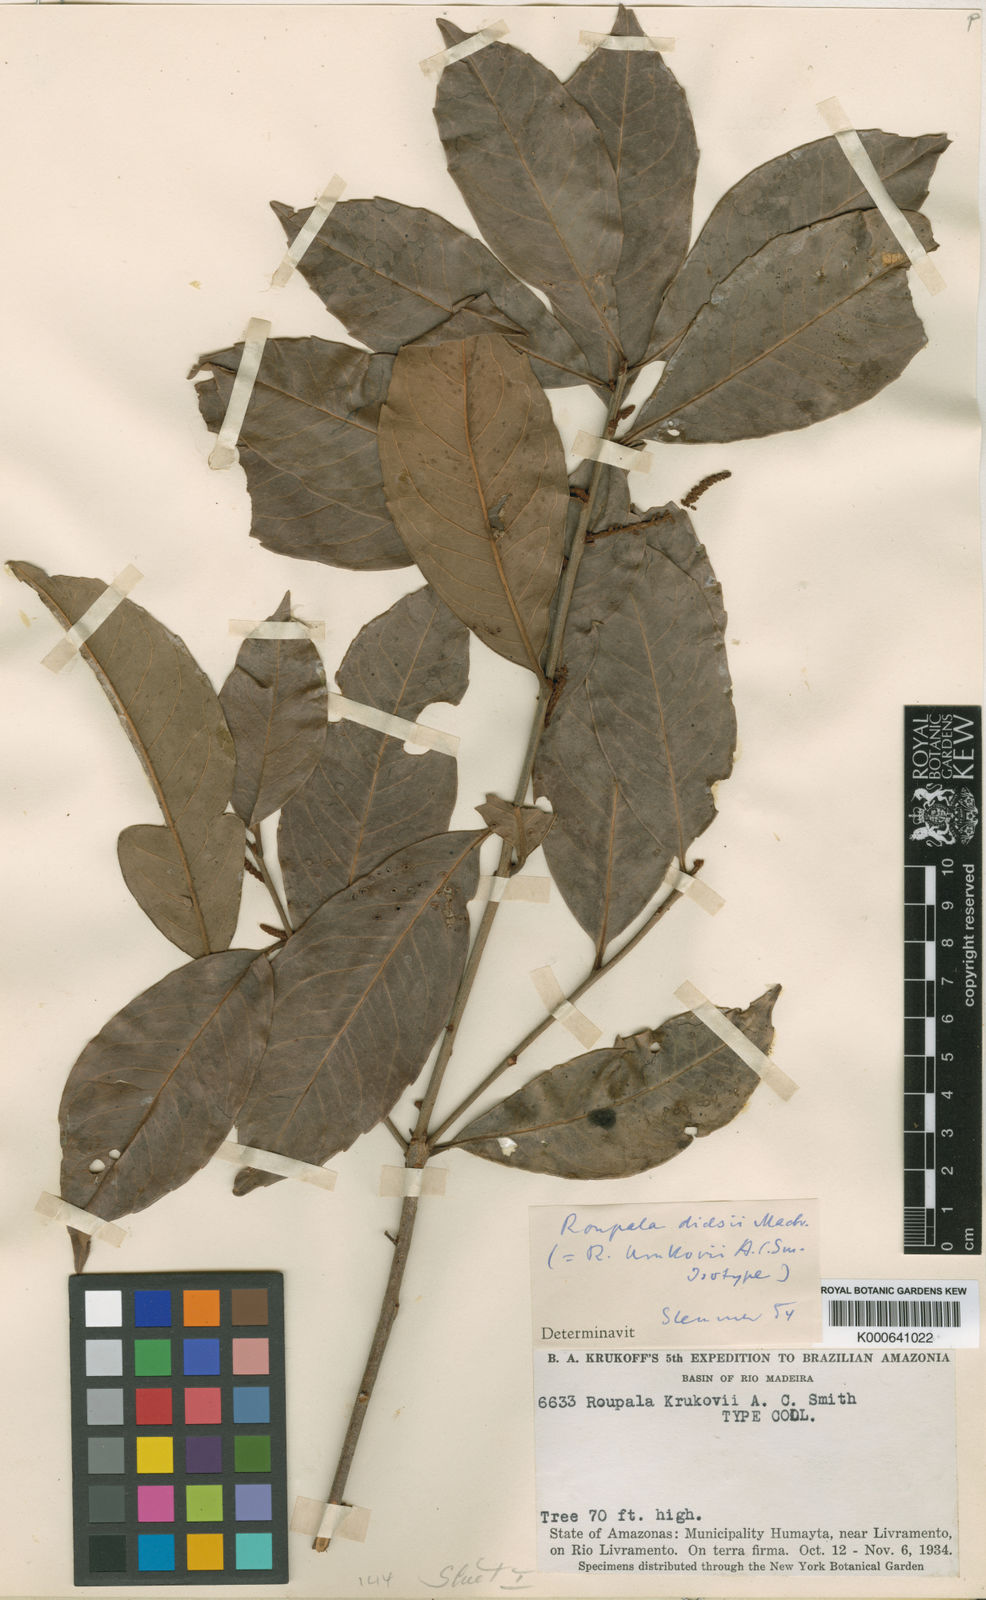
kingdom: Plantae
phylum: Tracheophyta
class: Magnoliopsida
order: Proteales
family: Proteaceae
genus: Roupala
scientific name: Roupala dielsii
